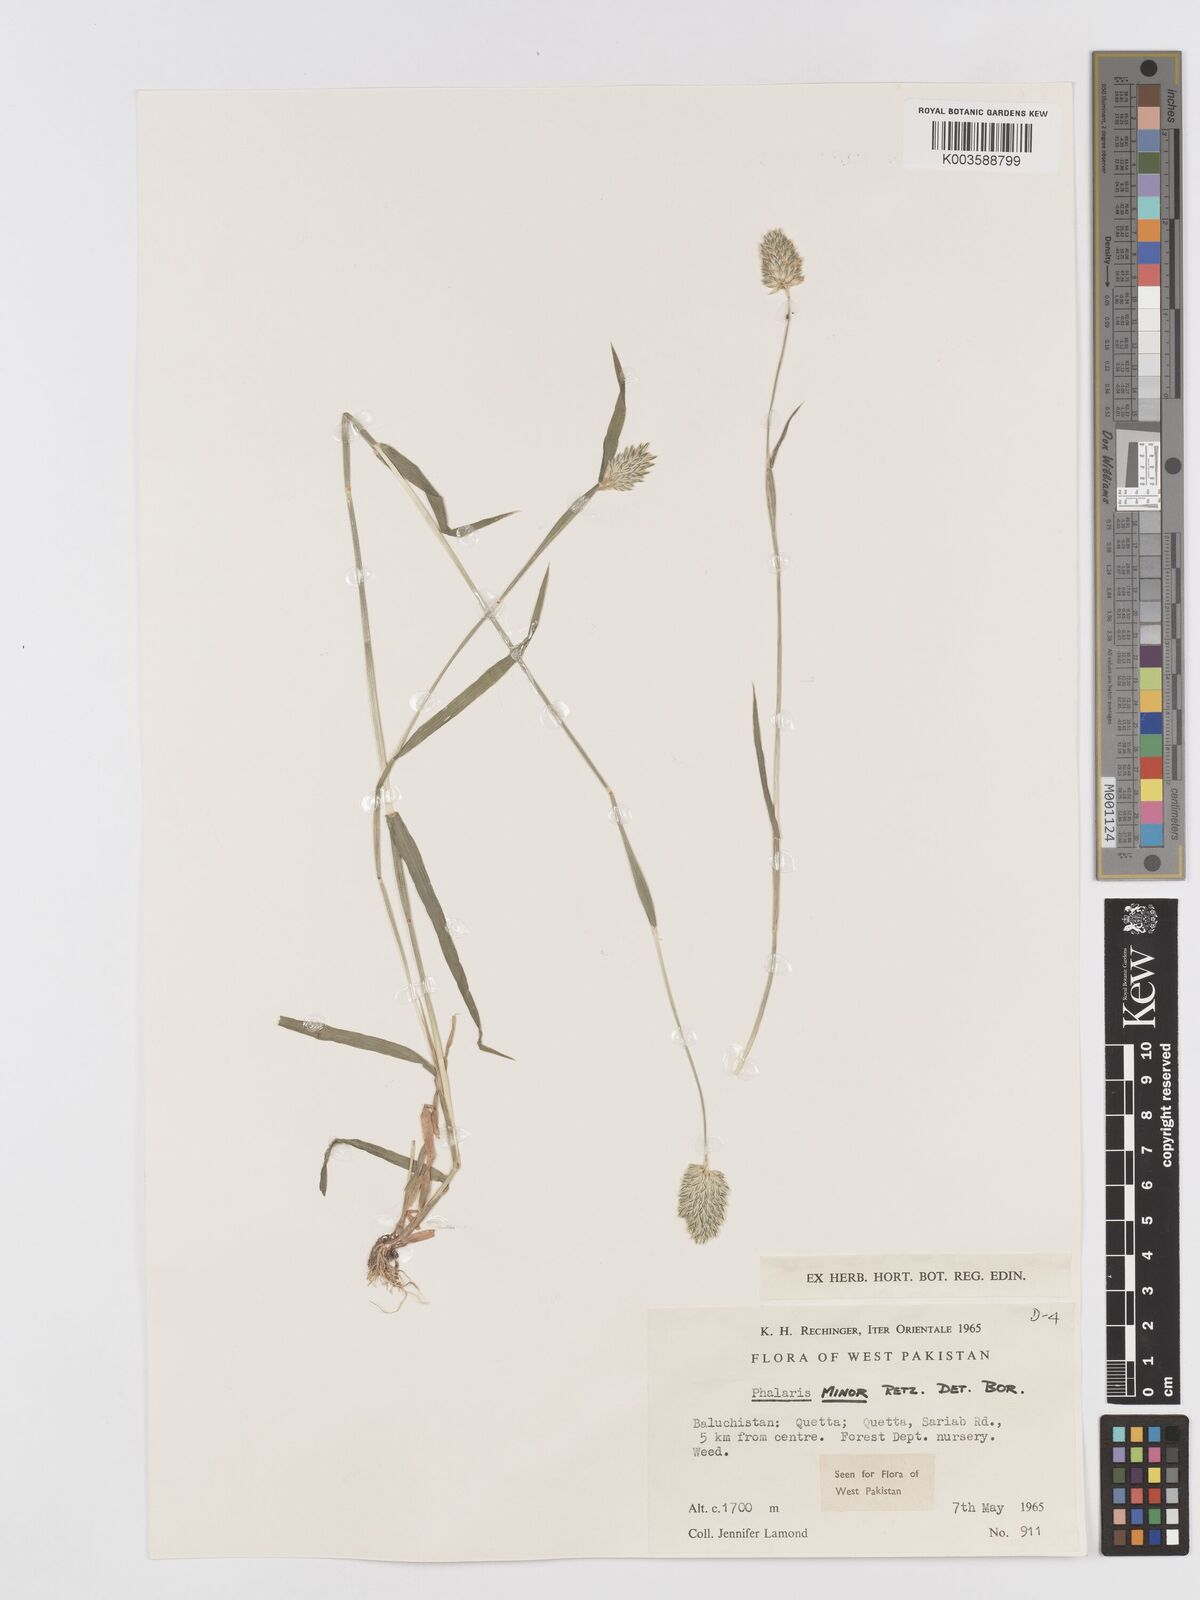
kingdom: Plantae
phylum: Tracheophyta
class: Liliopsida
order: Poales
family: Poaceae
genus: Phalaris
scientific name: Phalaris minor
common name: Littleseed canarygrass
